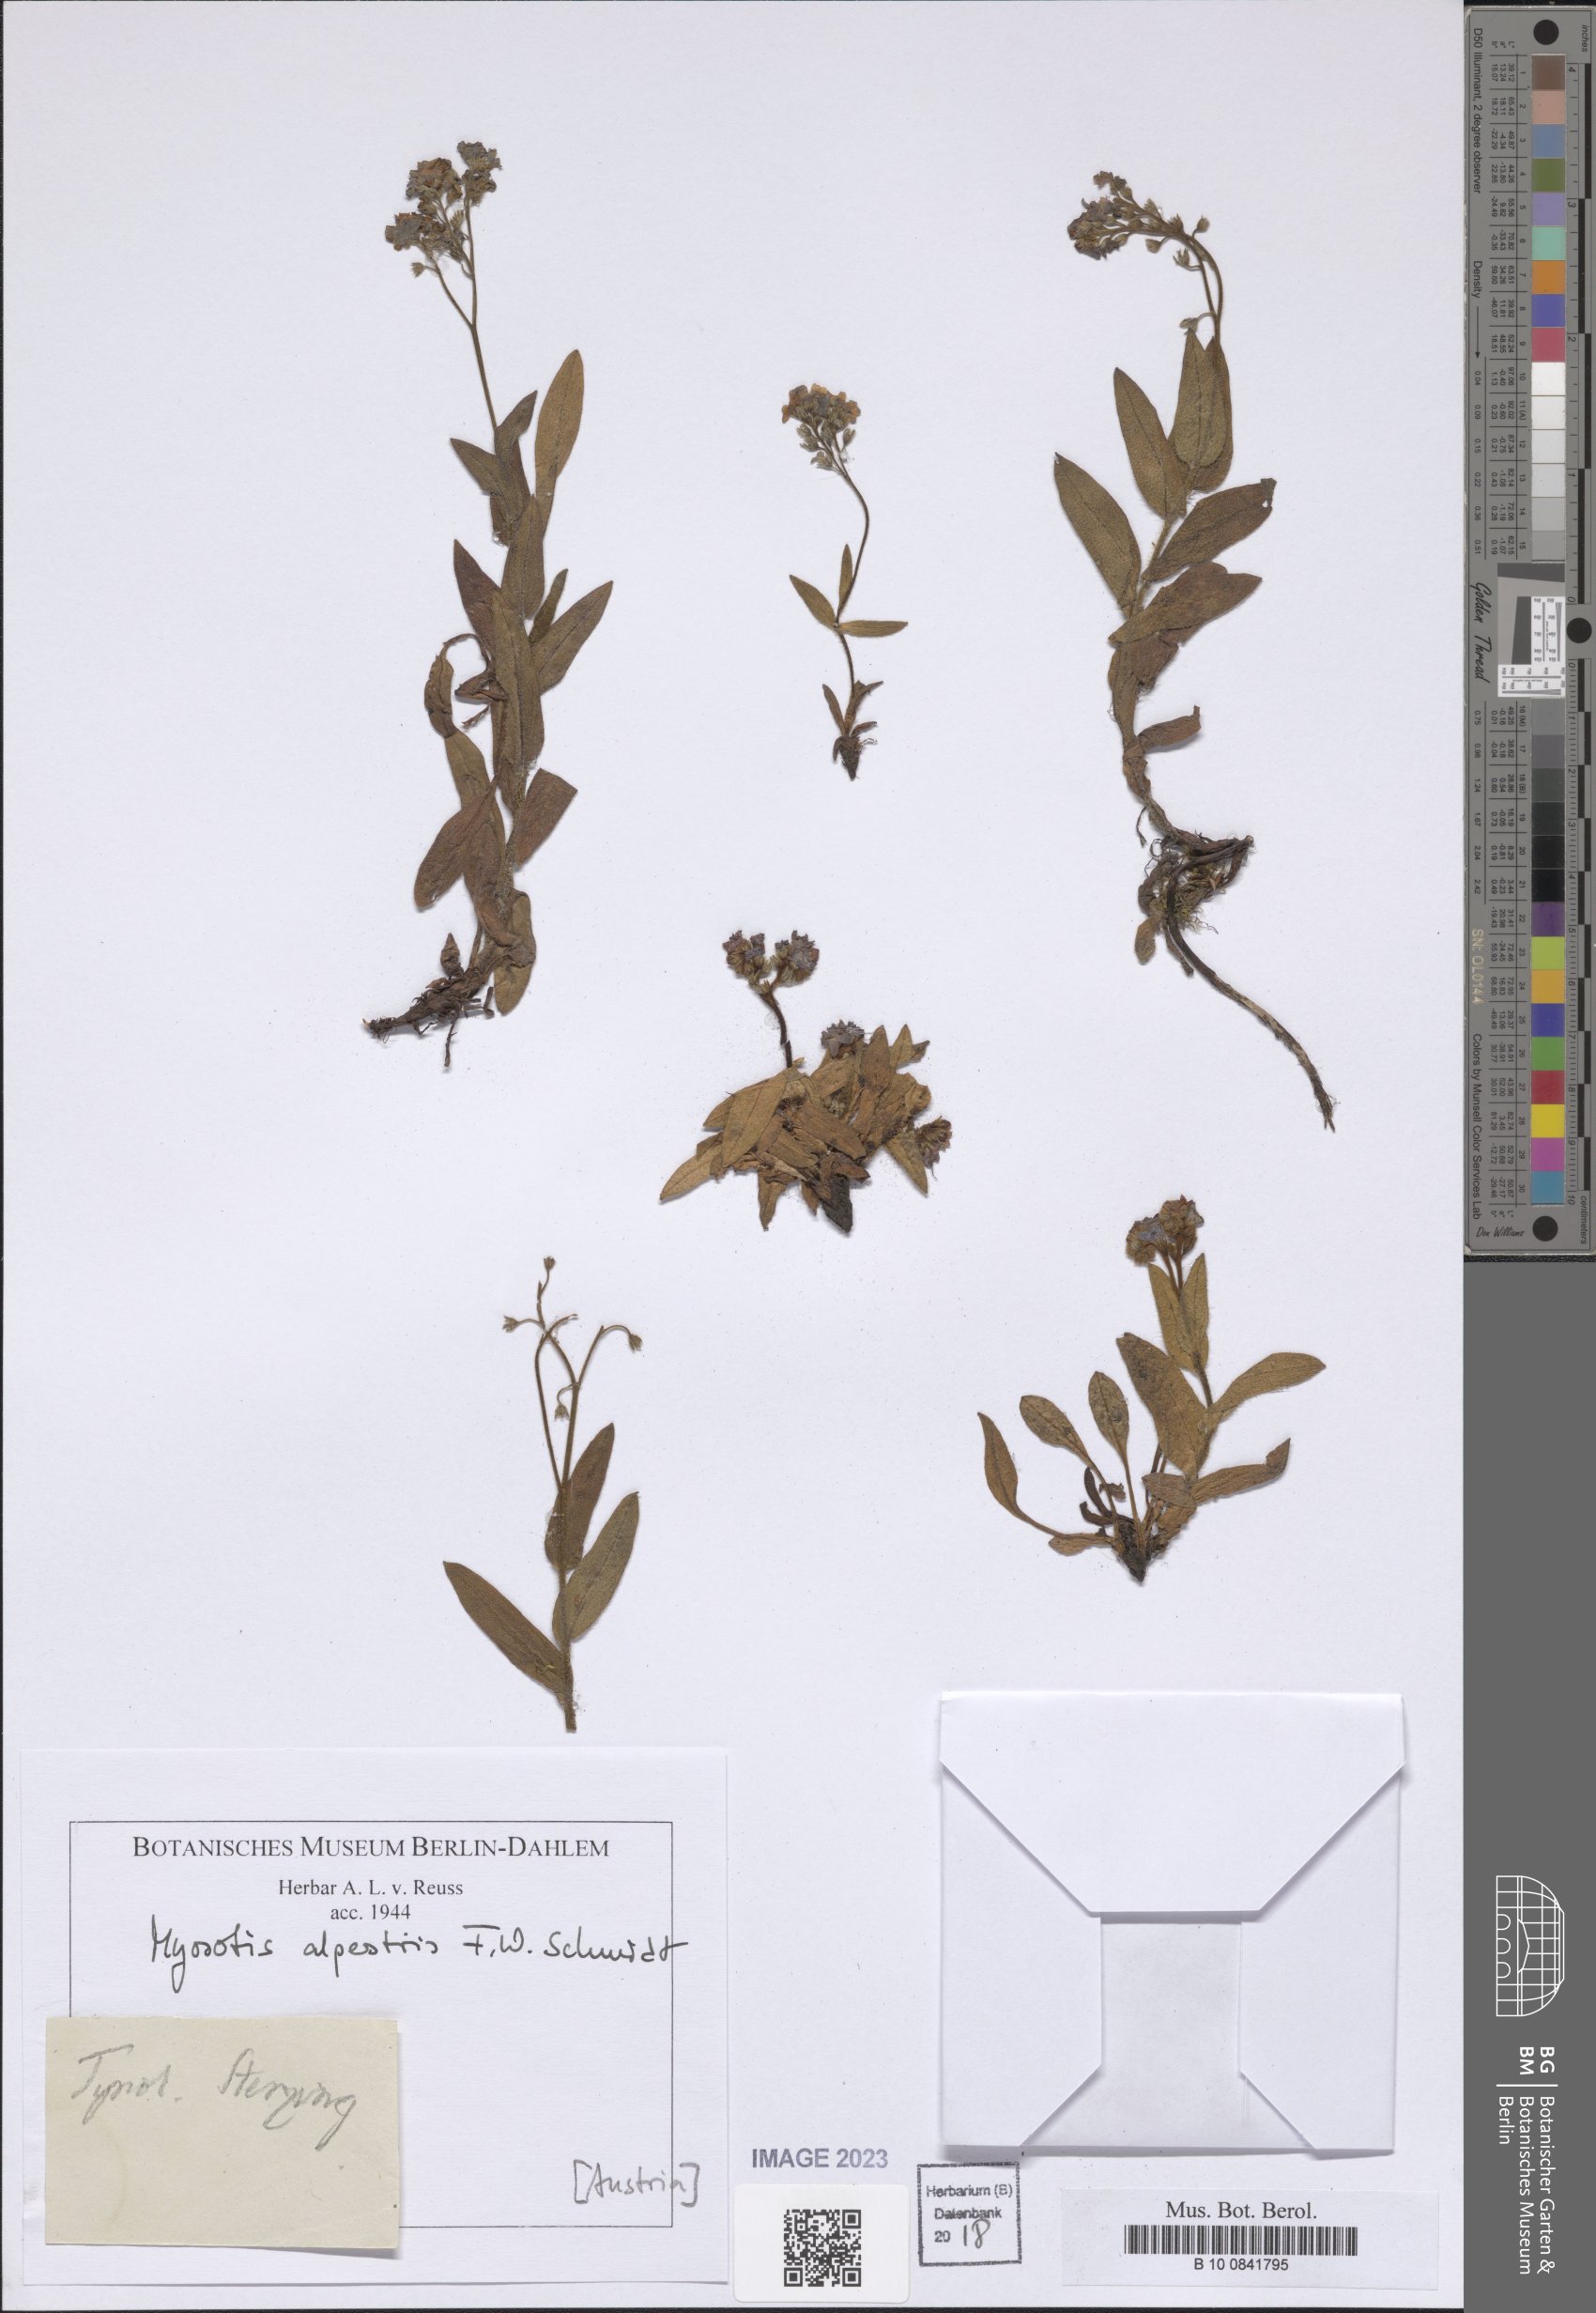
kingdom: Plantae
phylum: Tracheophyta
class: Magnoliopsida
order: Boraginales
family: Boraginaceae
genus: Myosotis
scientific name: Myosotis alpestris
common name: Alpine forget-me-not
